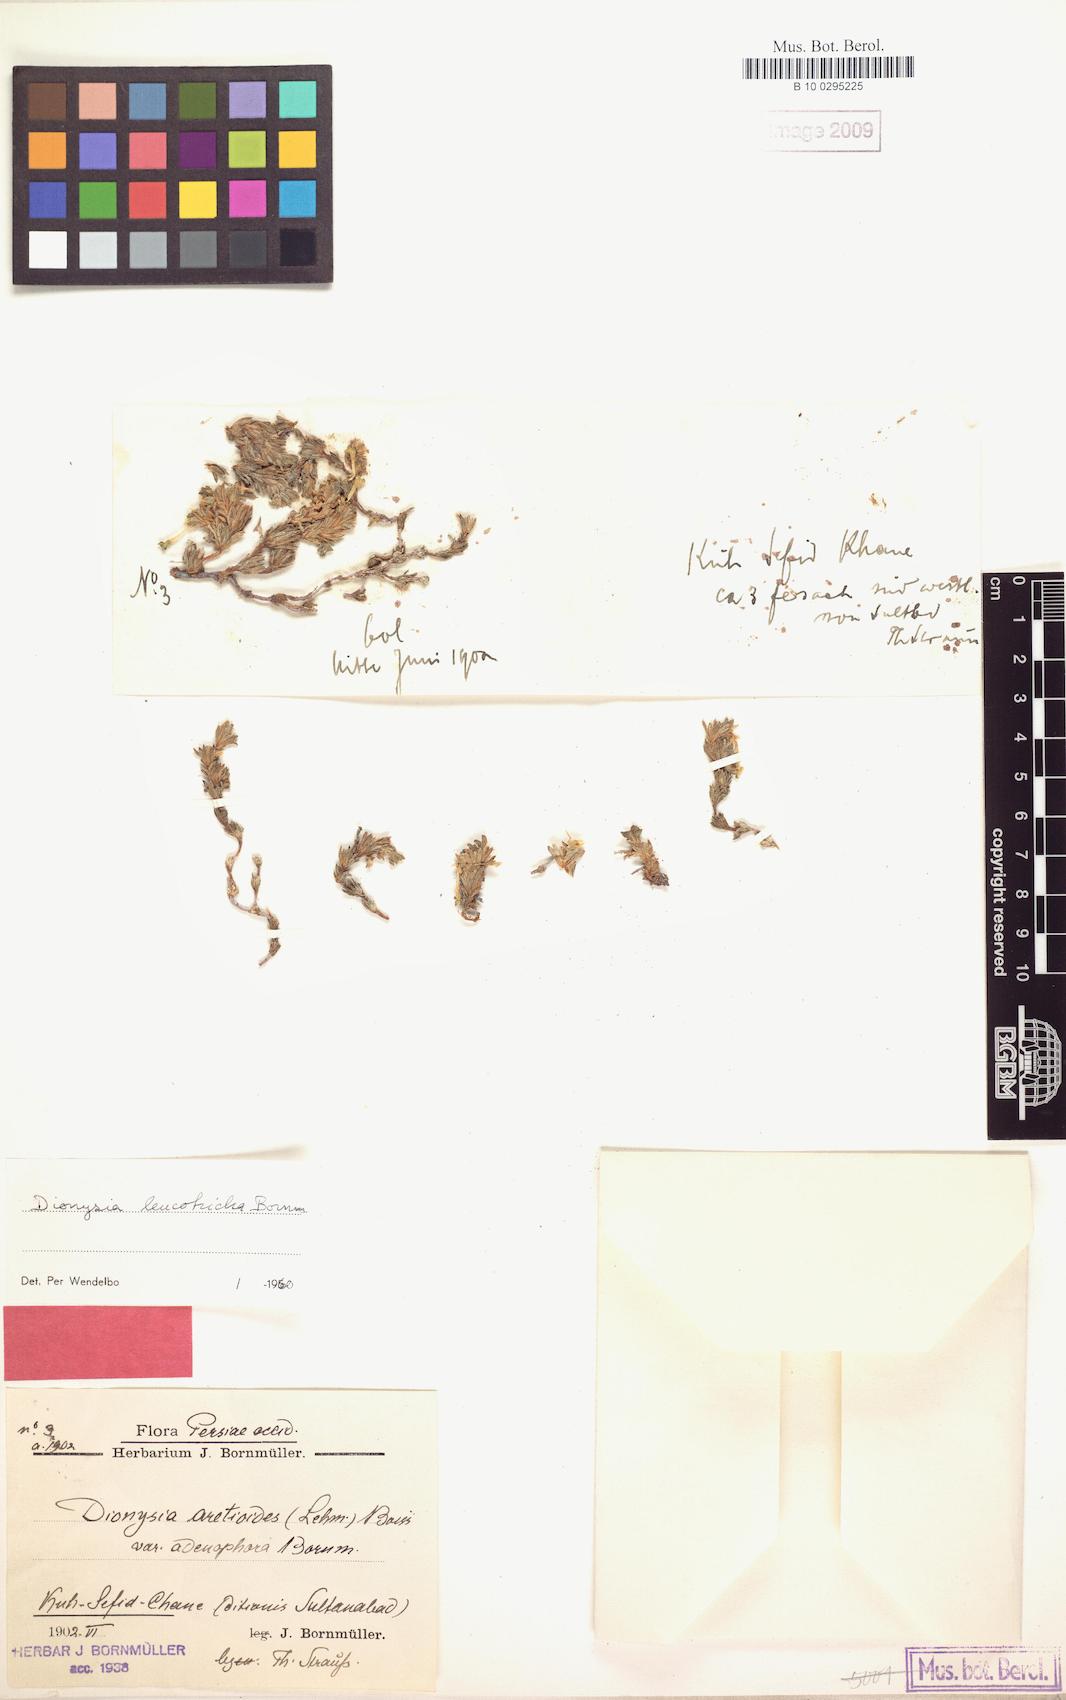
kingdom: Plantae
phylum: Tracheophyta
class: Magnoliopsida
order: Ericales
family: Primulaceae
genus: Dionysia
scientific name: Dionysia leucotricha
